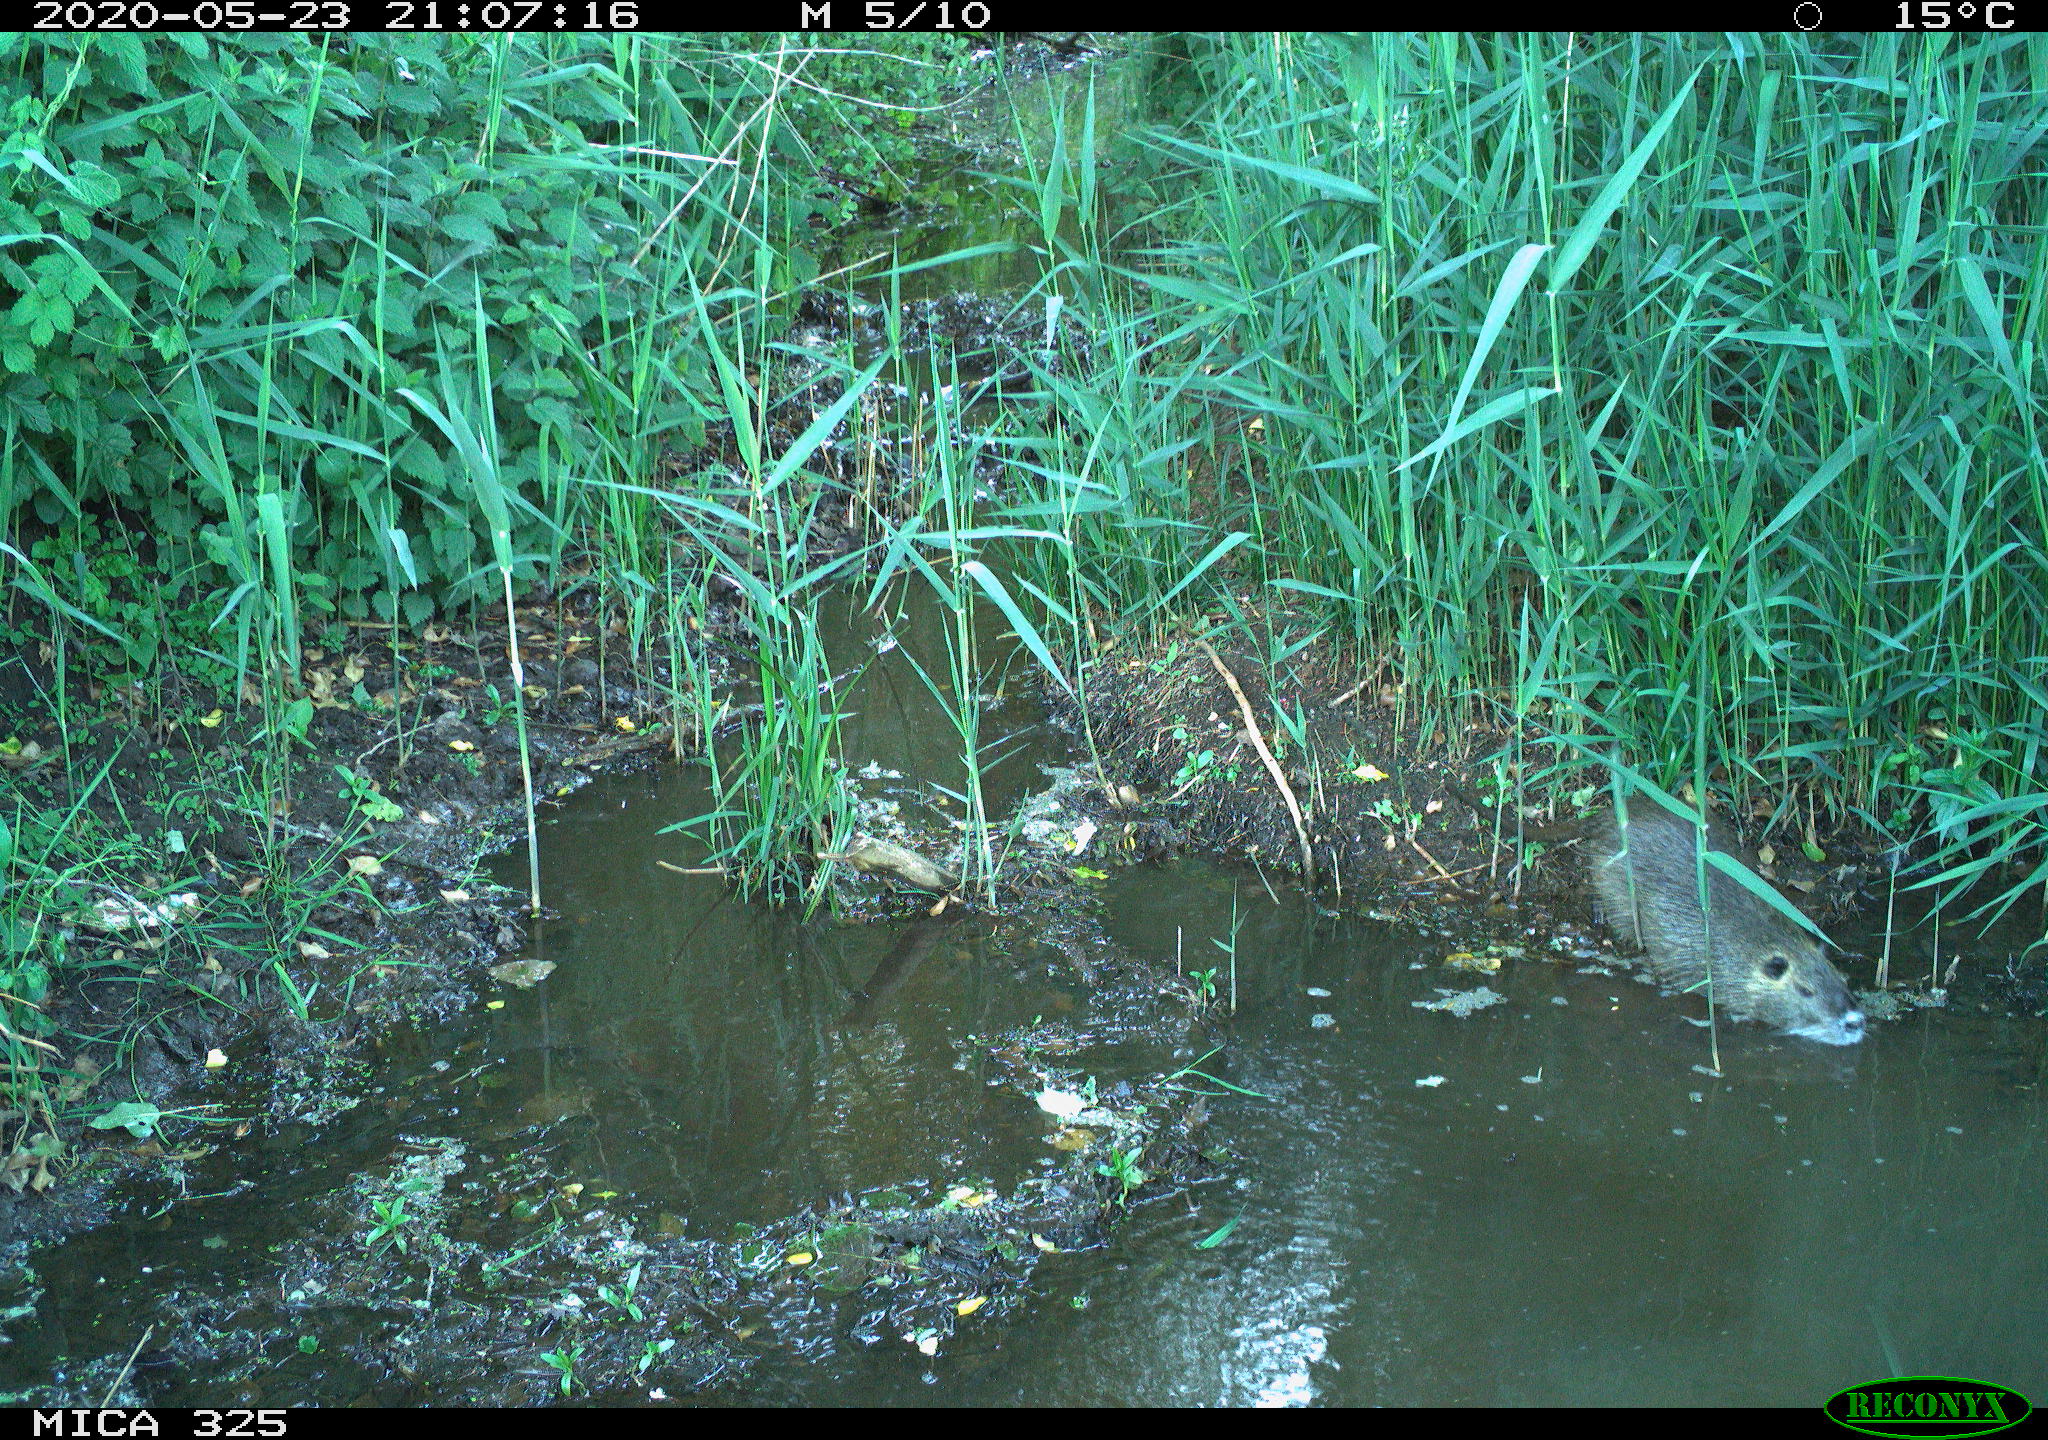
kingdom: Animalia
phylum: Chordata
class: Mammalia
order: Rodentia
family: Myocastoridae
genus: Myocastor
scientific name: Myocastor coypus
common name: Coypu
